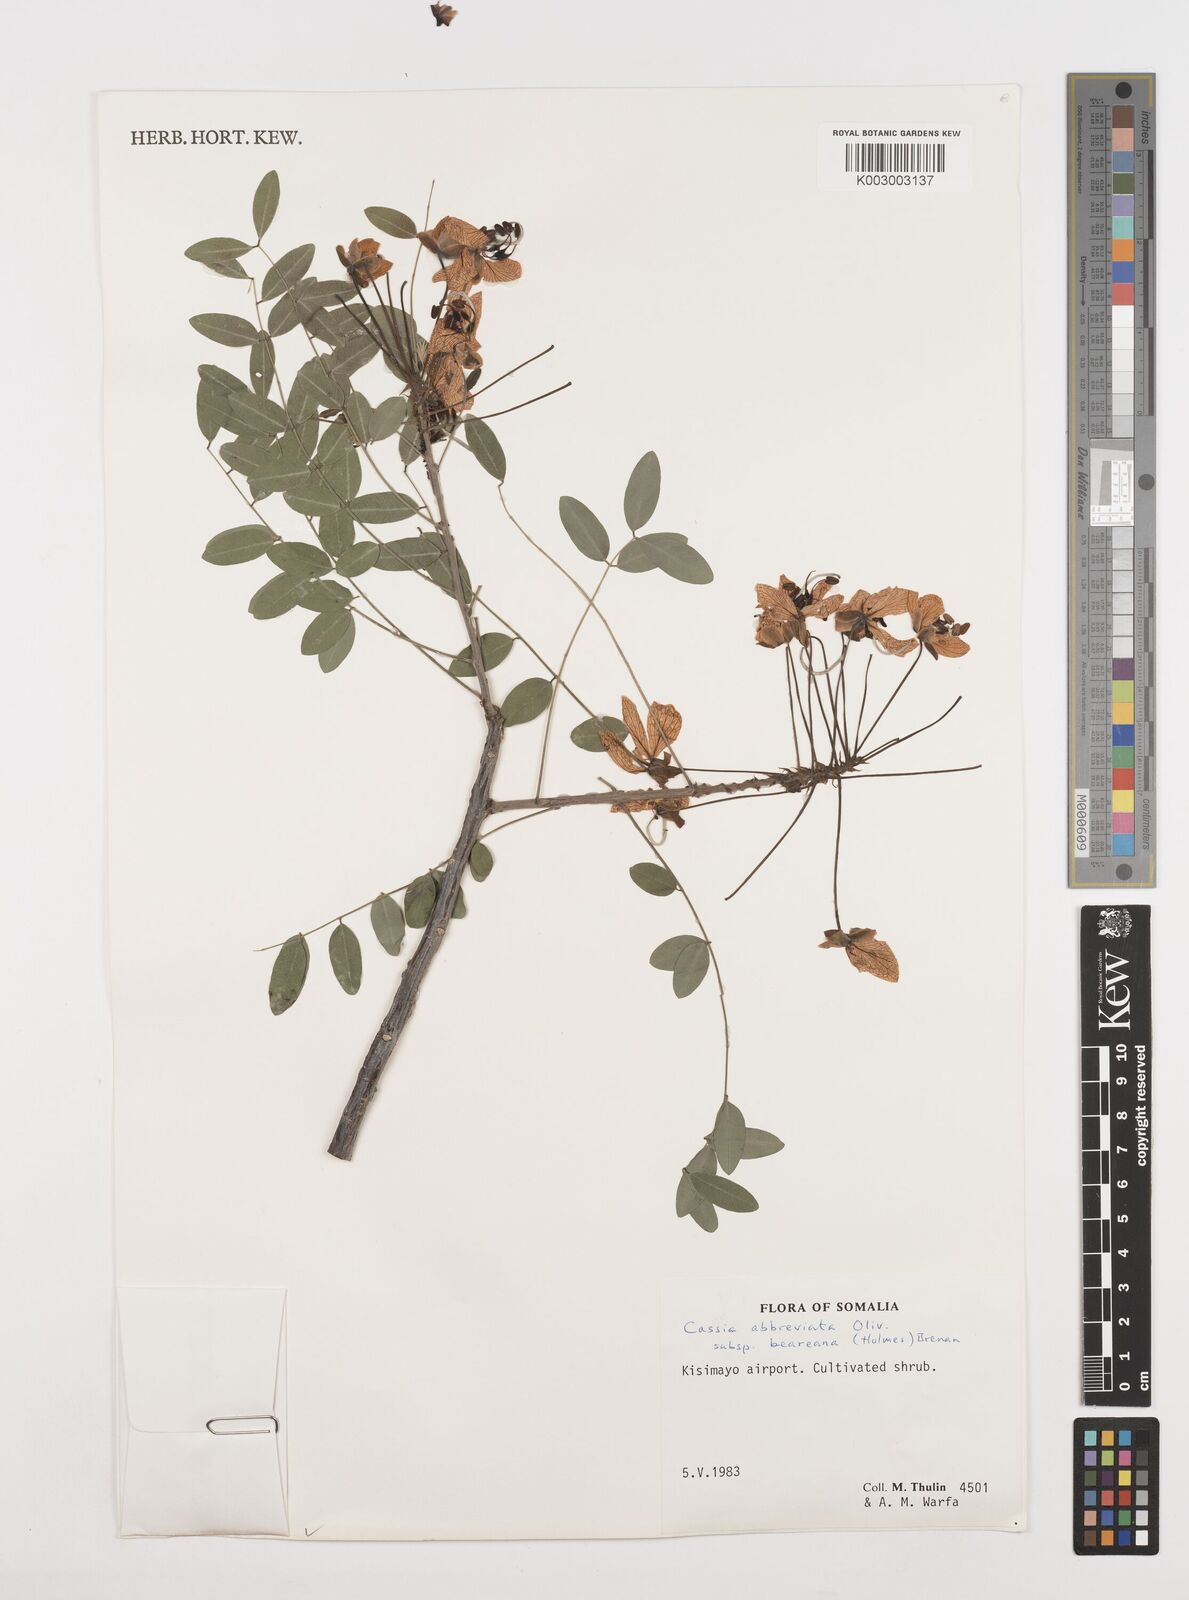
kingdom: Plantae
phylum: Tracheophyta
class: Magnoliopsida
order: Fabales
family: Fabaceae
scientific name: Fabaceae
